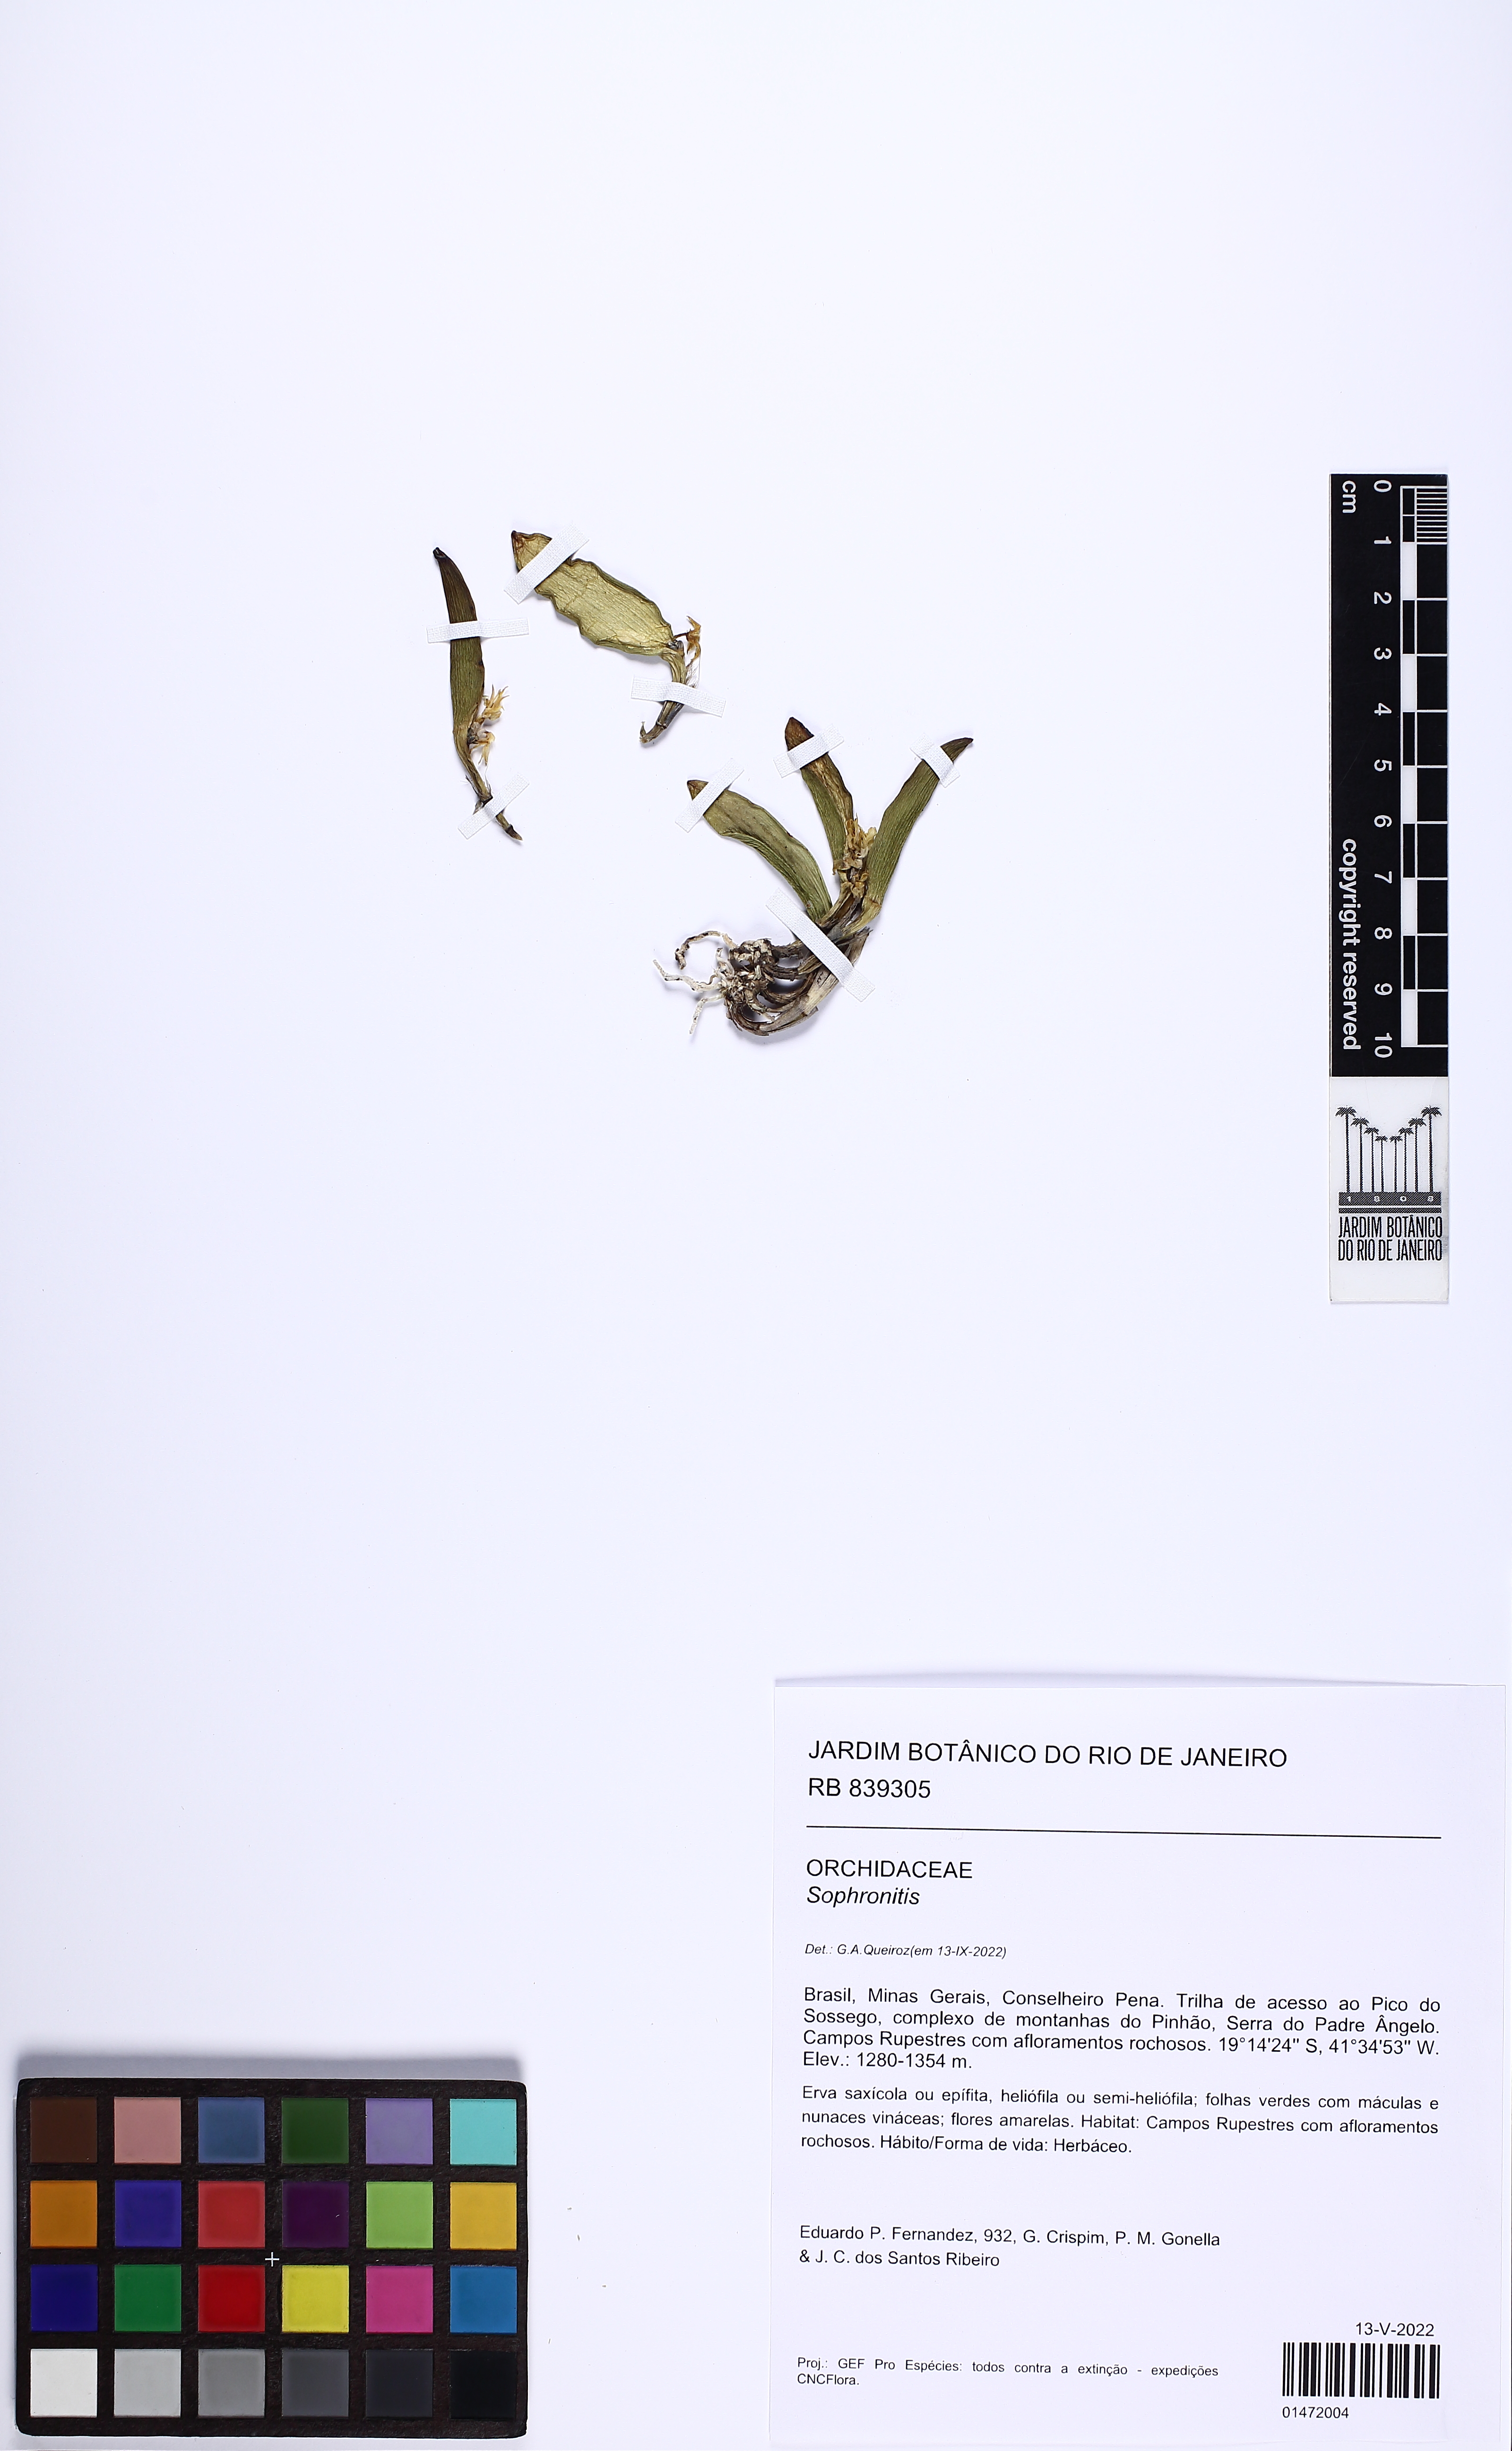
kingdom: Plantae
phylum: Tracheophyta
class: Liliopsida
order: Asparagales
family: Orchidaceae
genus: Cattleya
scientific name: Cattleya
